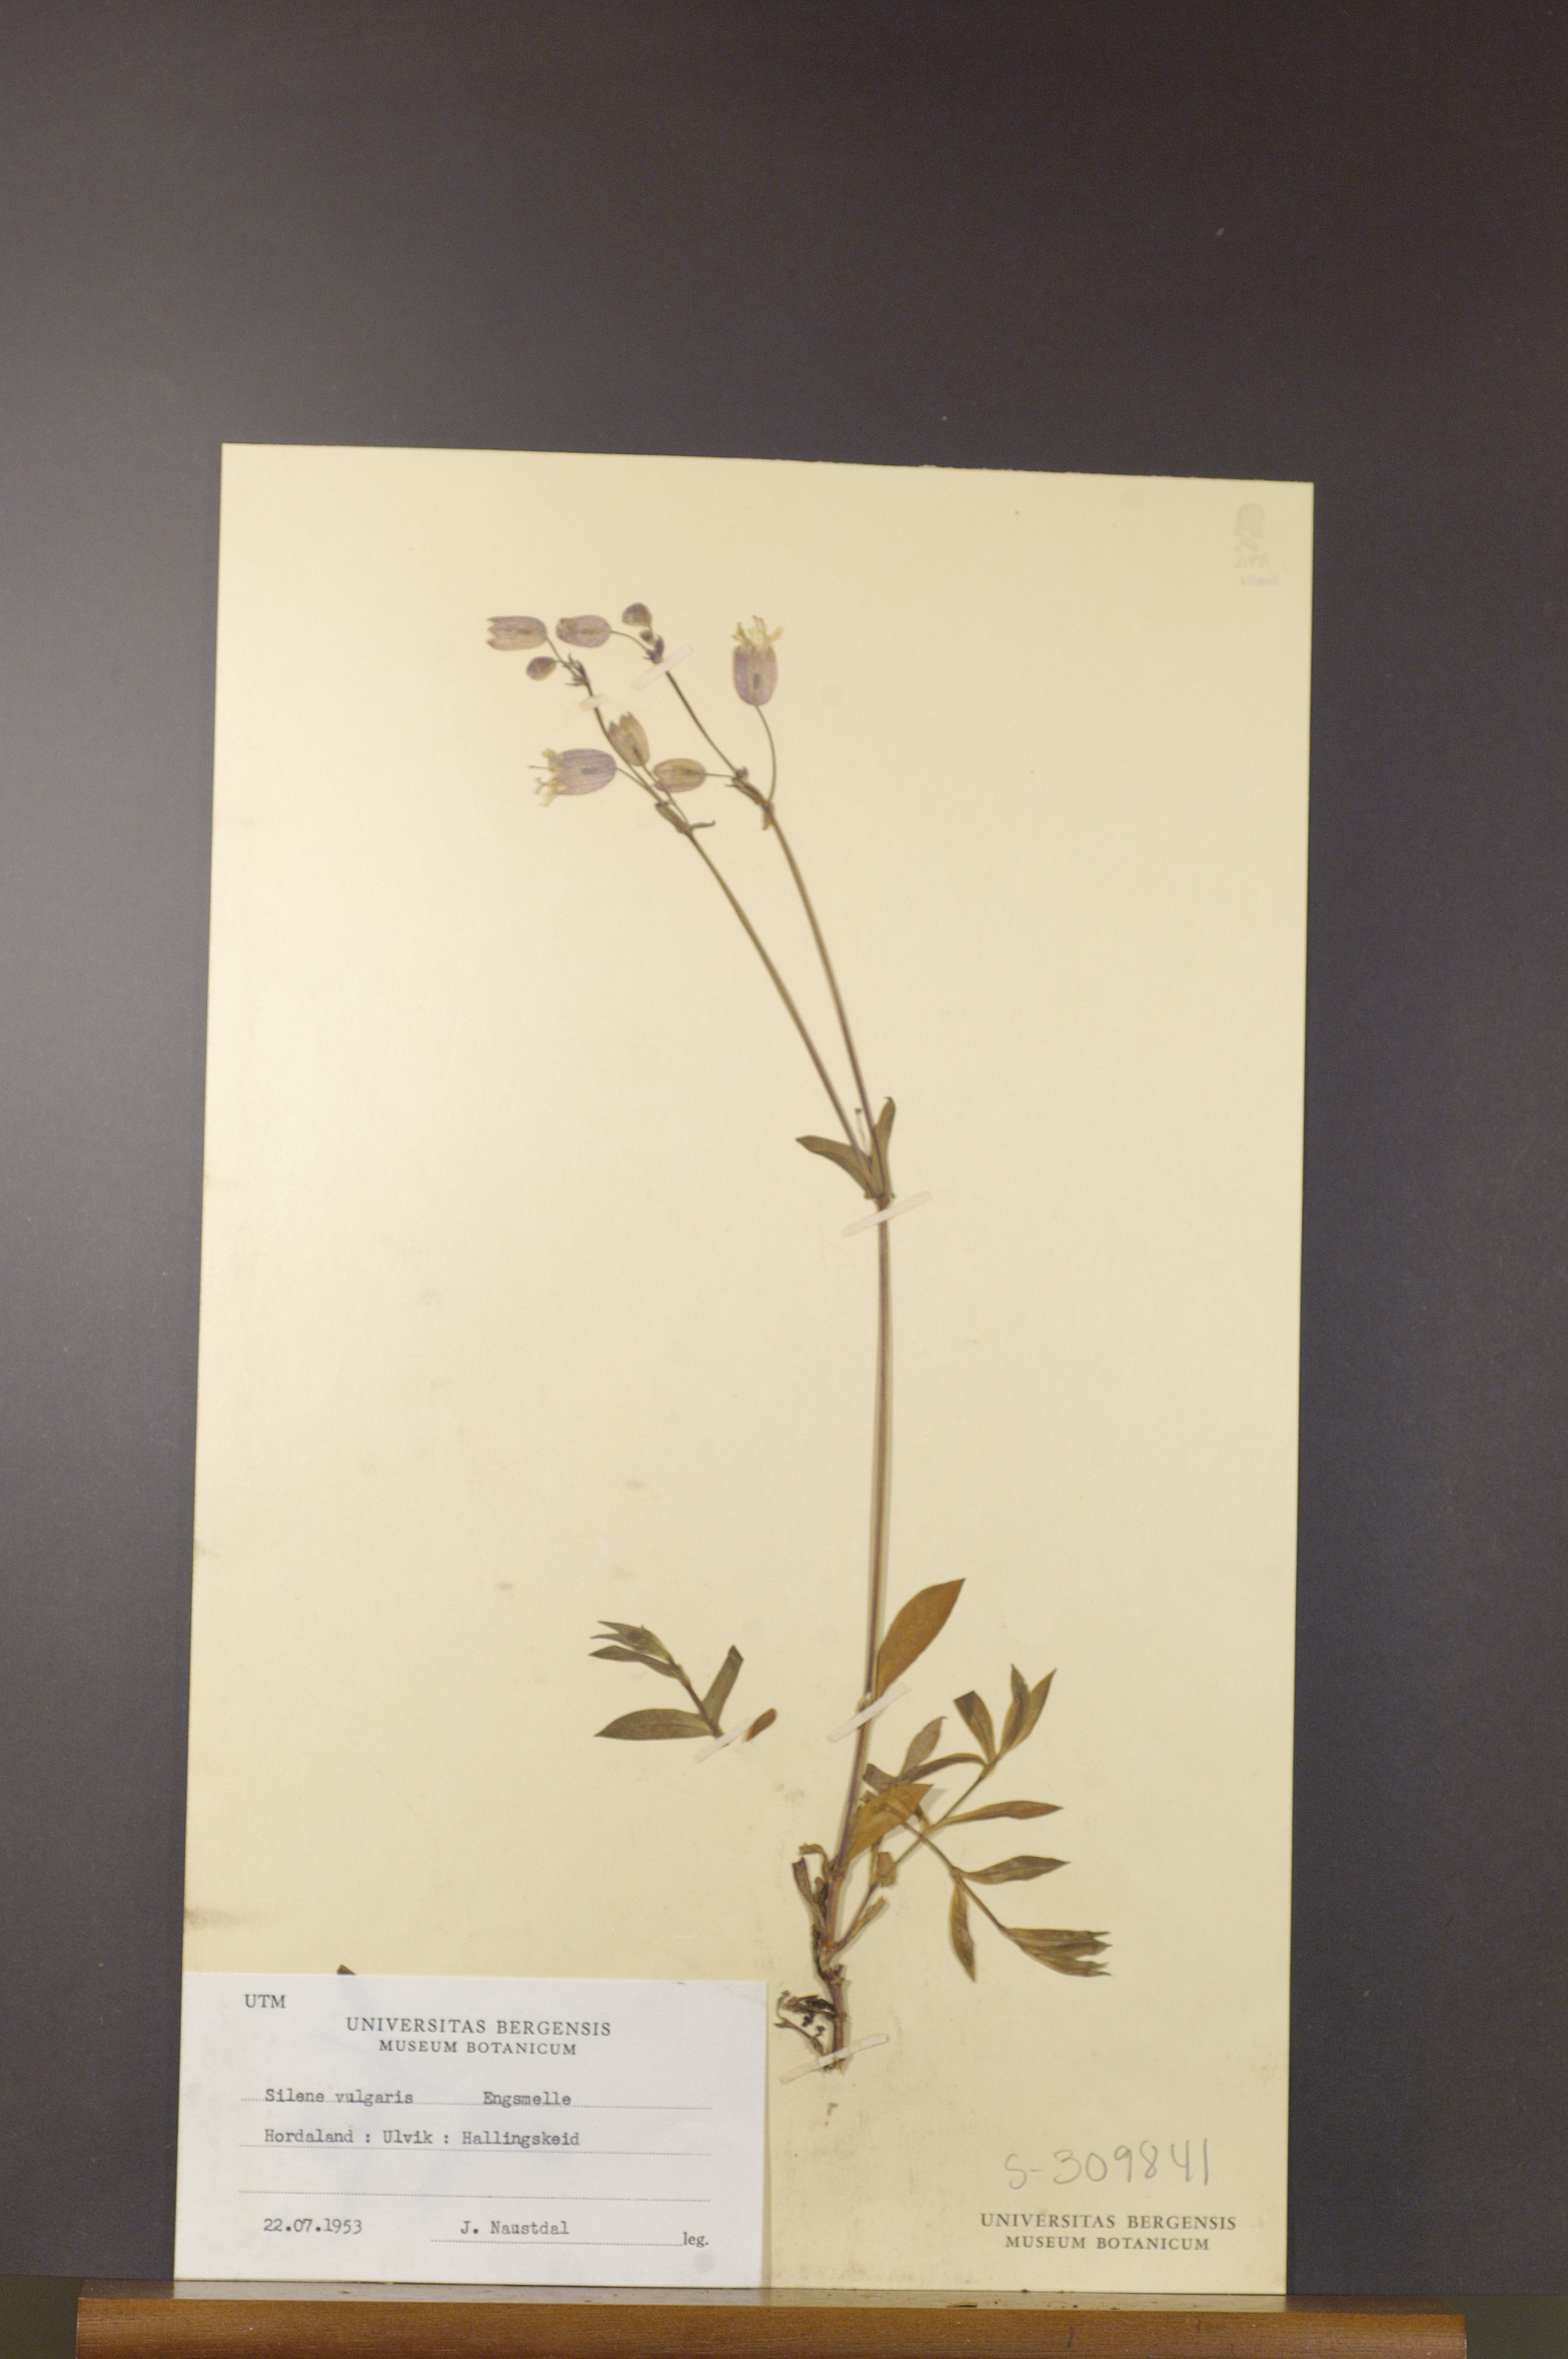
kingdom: Plantae
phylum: Tracheophyta
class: Magnoliopsida
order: Caryophyllales
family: Caryophyllaceae
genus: Silene
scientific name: Silene vulgaris
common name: Bladder campion
